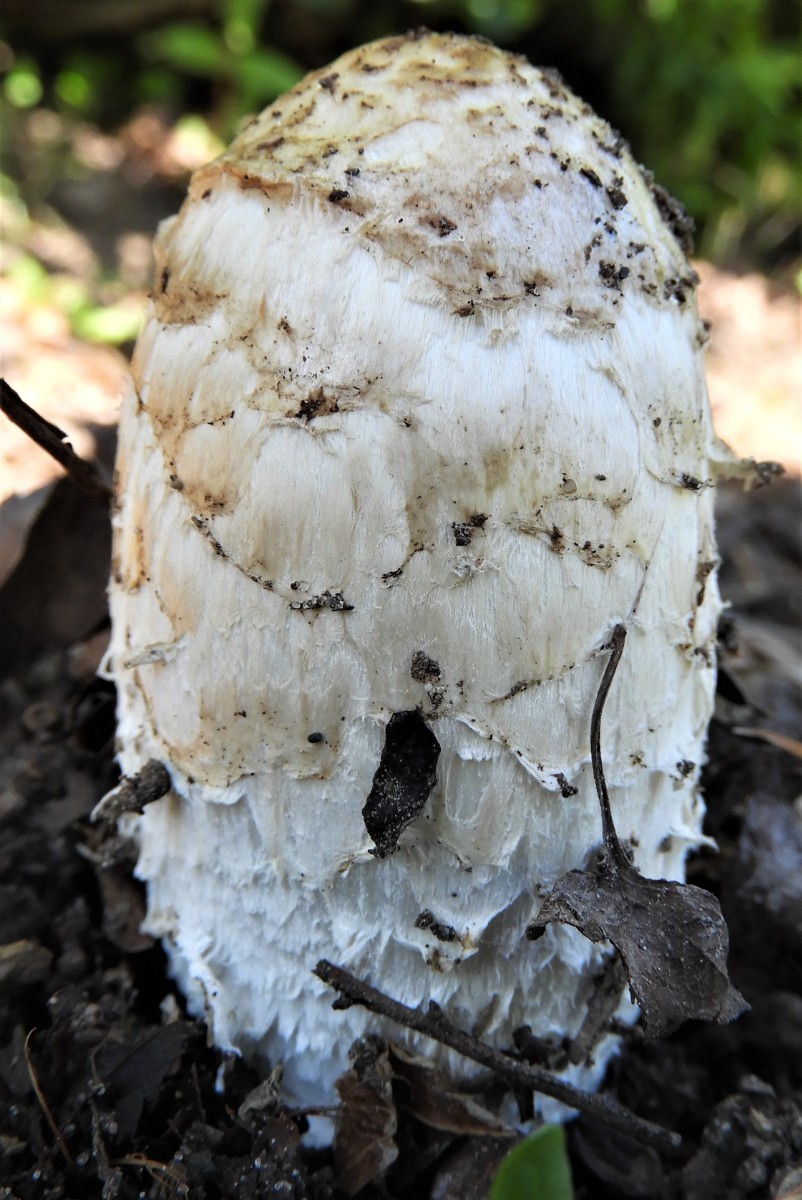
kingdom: Fungi
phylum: Basidiomycota
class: Agaricomycetes
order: Agaricales
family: Agaricaceae
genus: Coprinus
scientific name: Coprinus comatus
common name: stor parykhat
